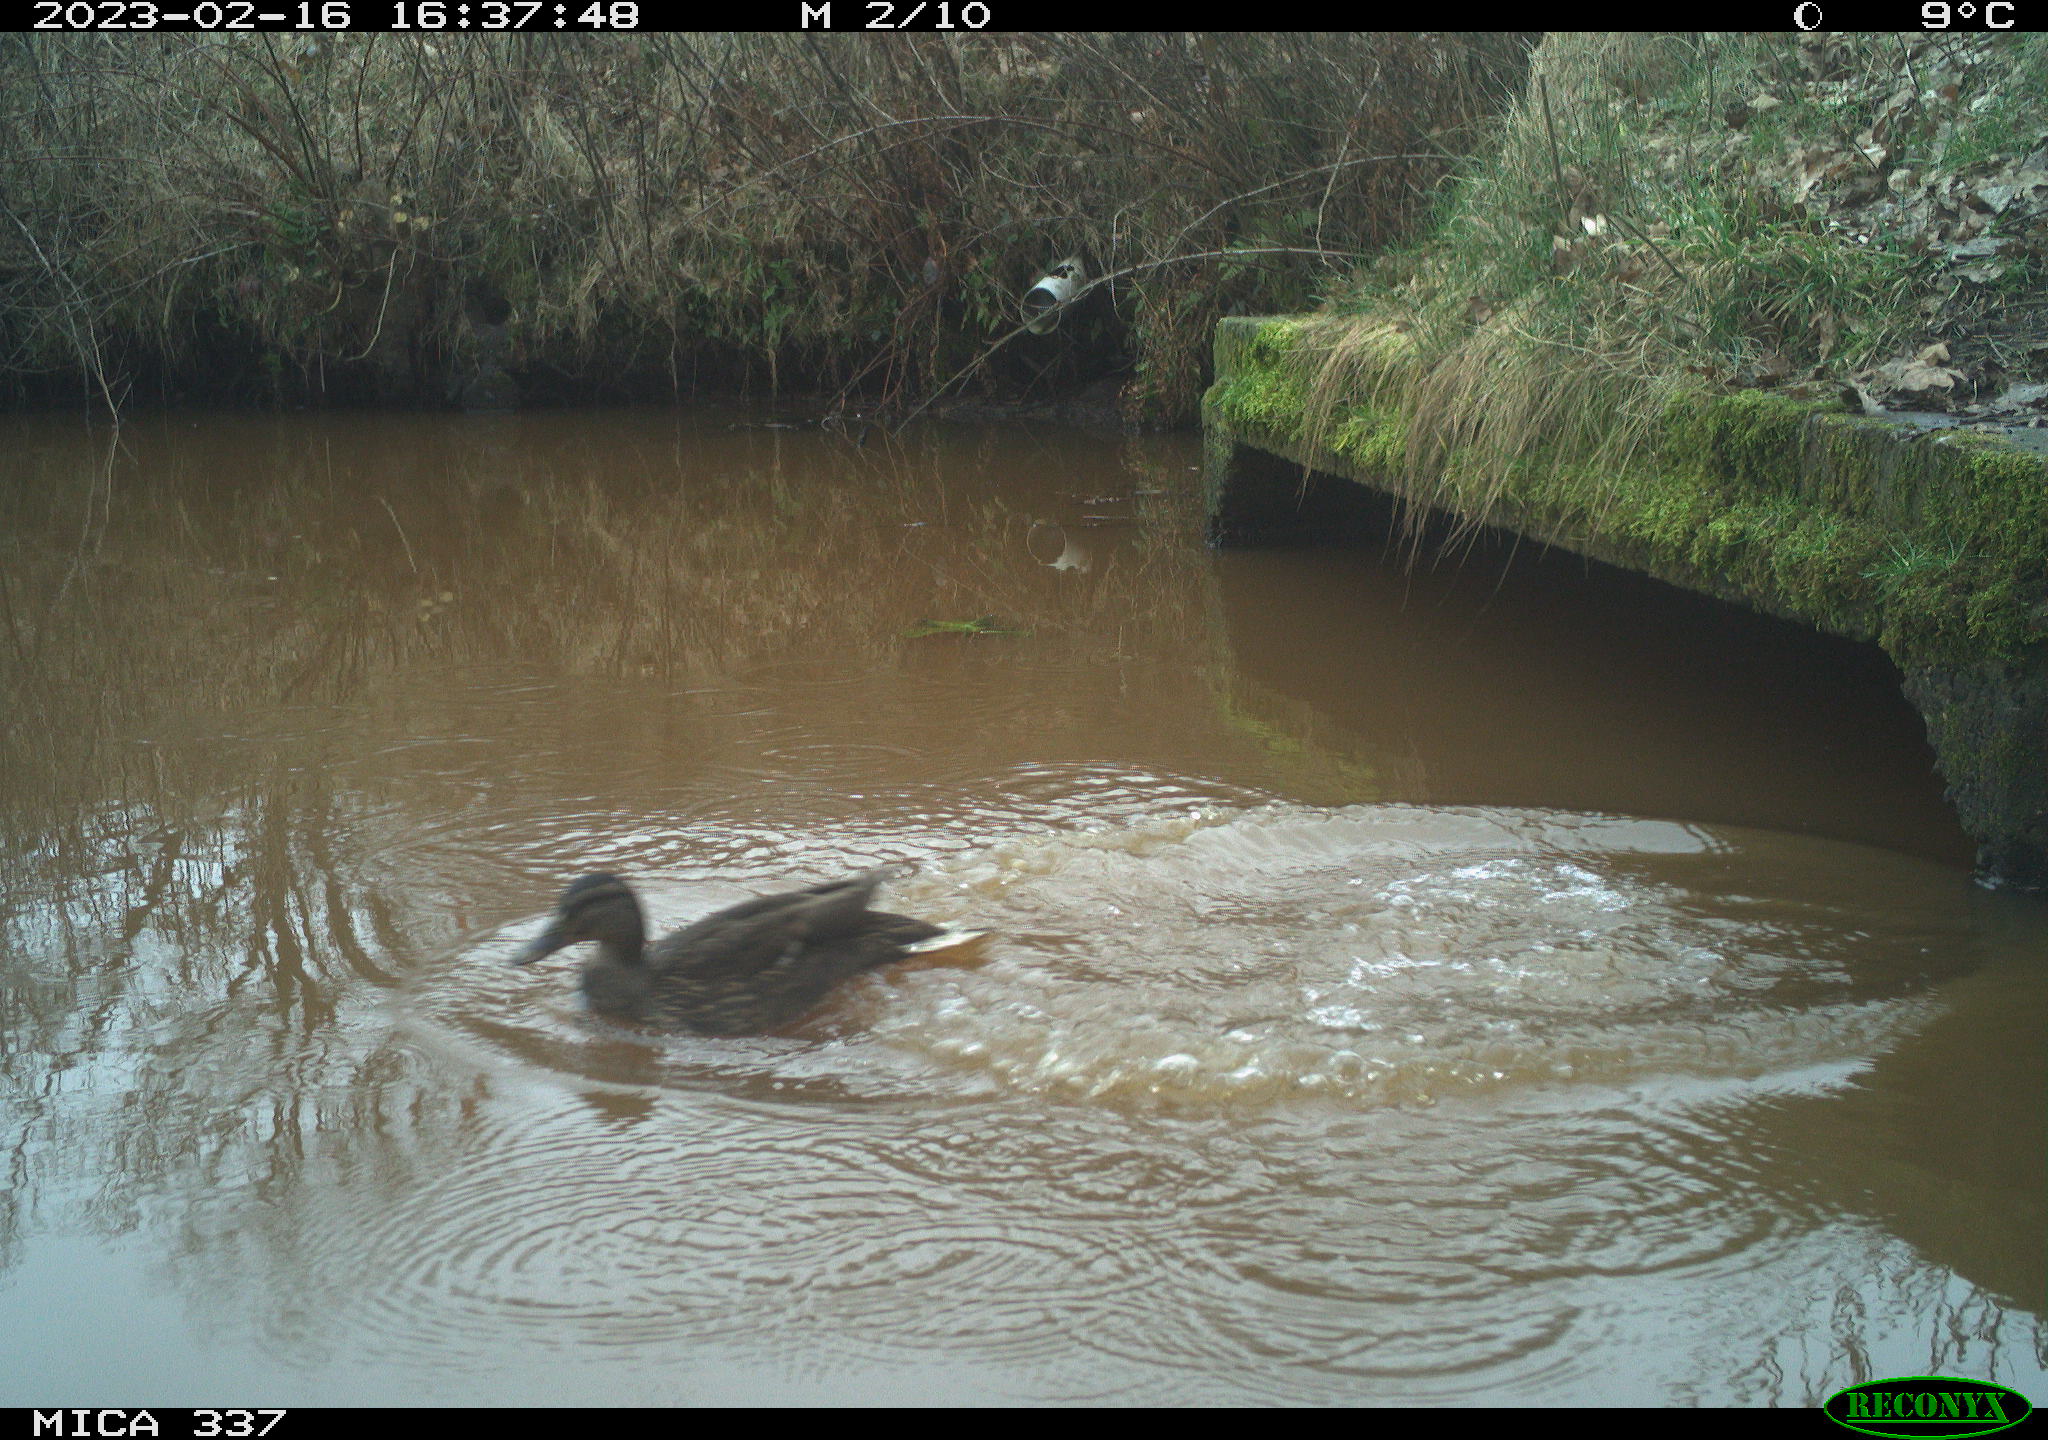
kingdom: Animalia
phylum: Chordata
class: Aves
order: Anseriformes
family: Anatidae
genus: Anas
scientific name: Anas
